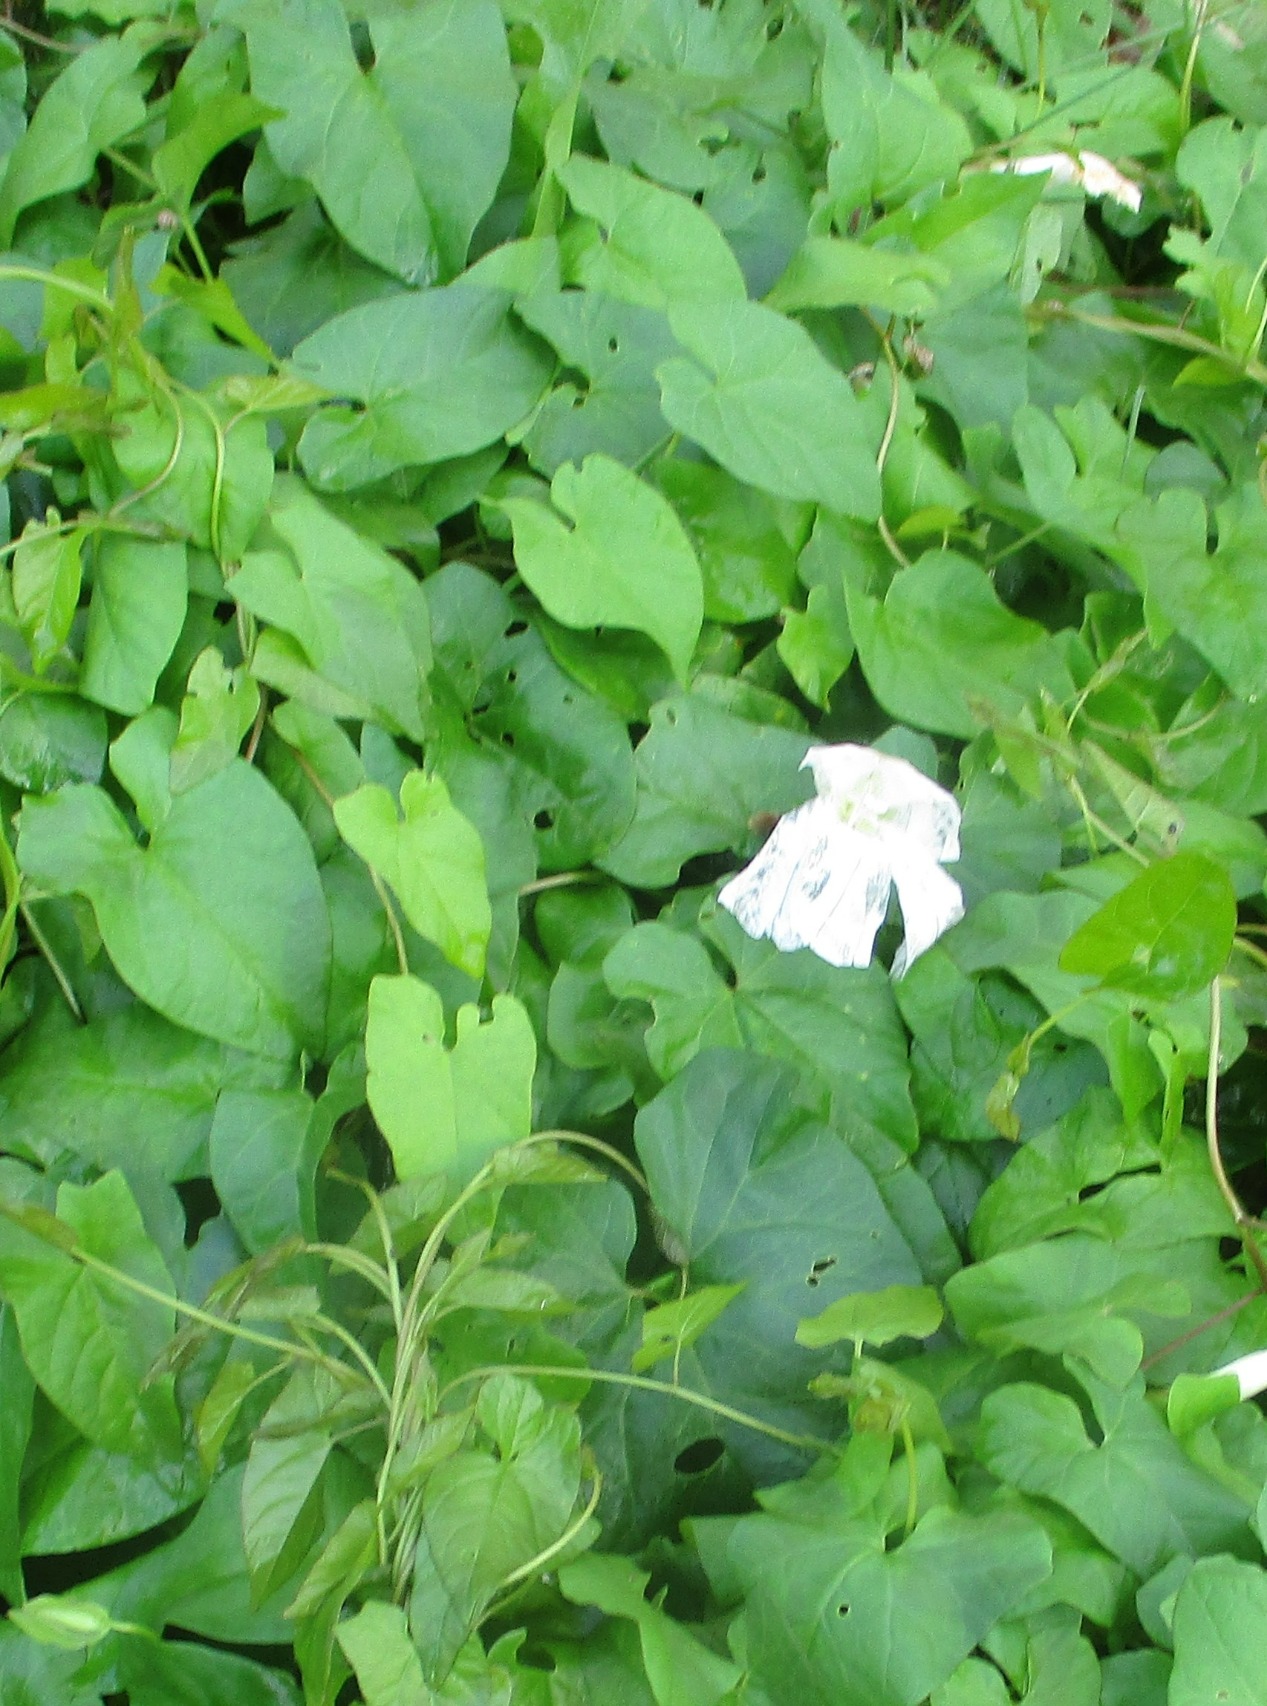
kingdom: Plantae
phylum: Tracheophyta
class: Magnoliopsida
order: Solanales
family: Convolvulaceae
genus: Calystegia
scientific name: Calystegia sepium
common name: Gærde-snerle
